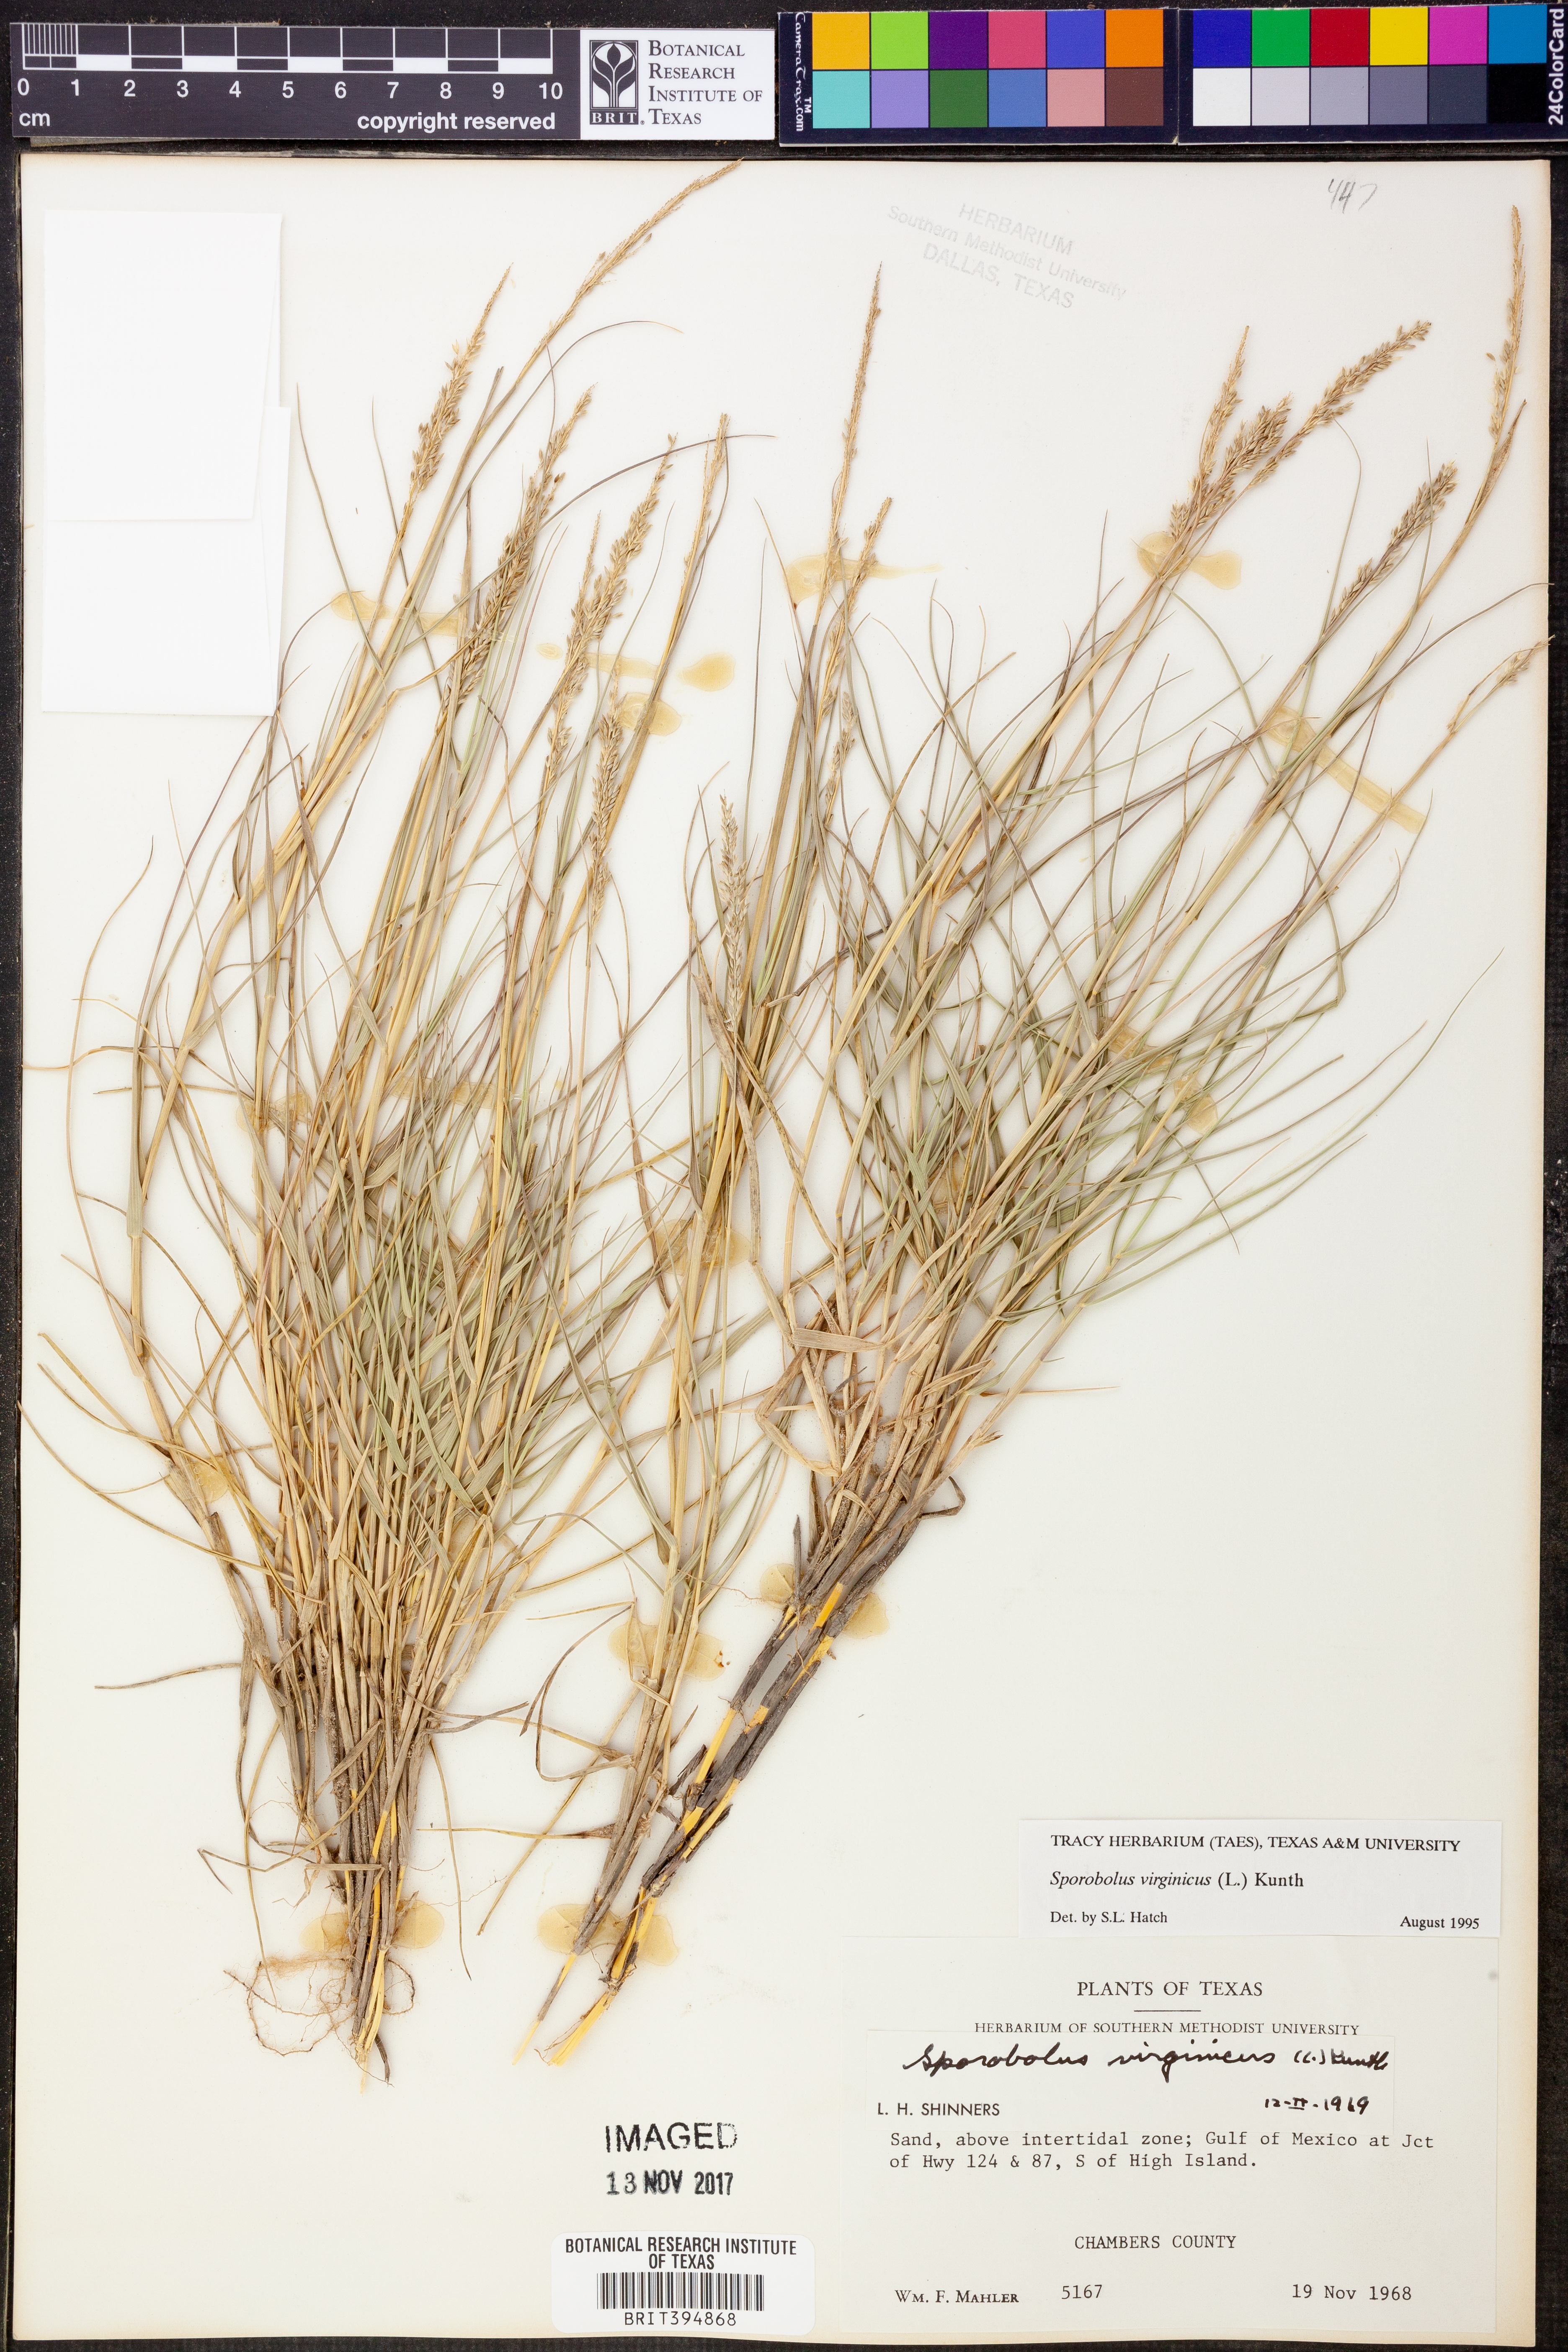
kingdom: Plantae
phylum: Tracheophyta
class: Liliopsida
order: Poales
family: Poaceae
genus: Sporobolus
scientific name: Sporobolus virginicus
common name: Beach dropseed
